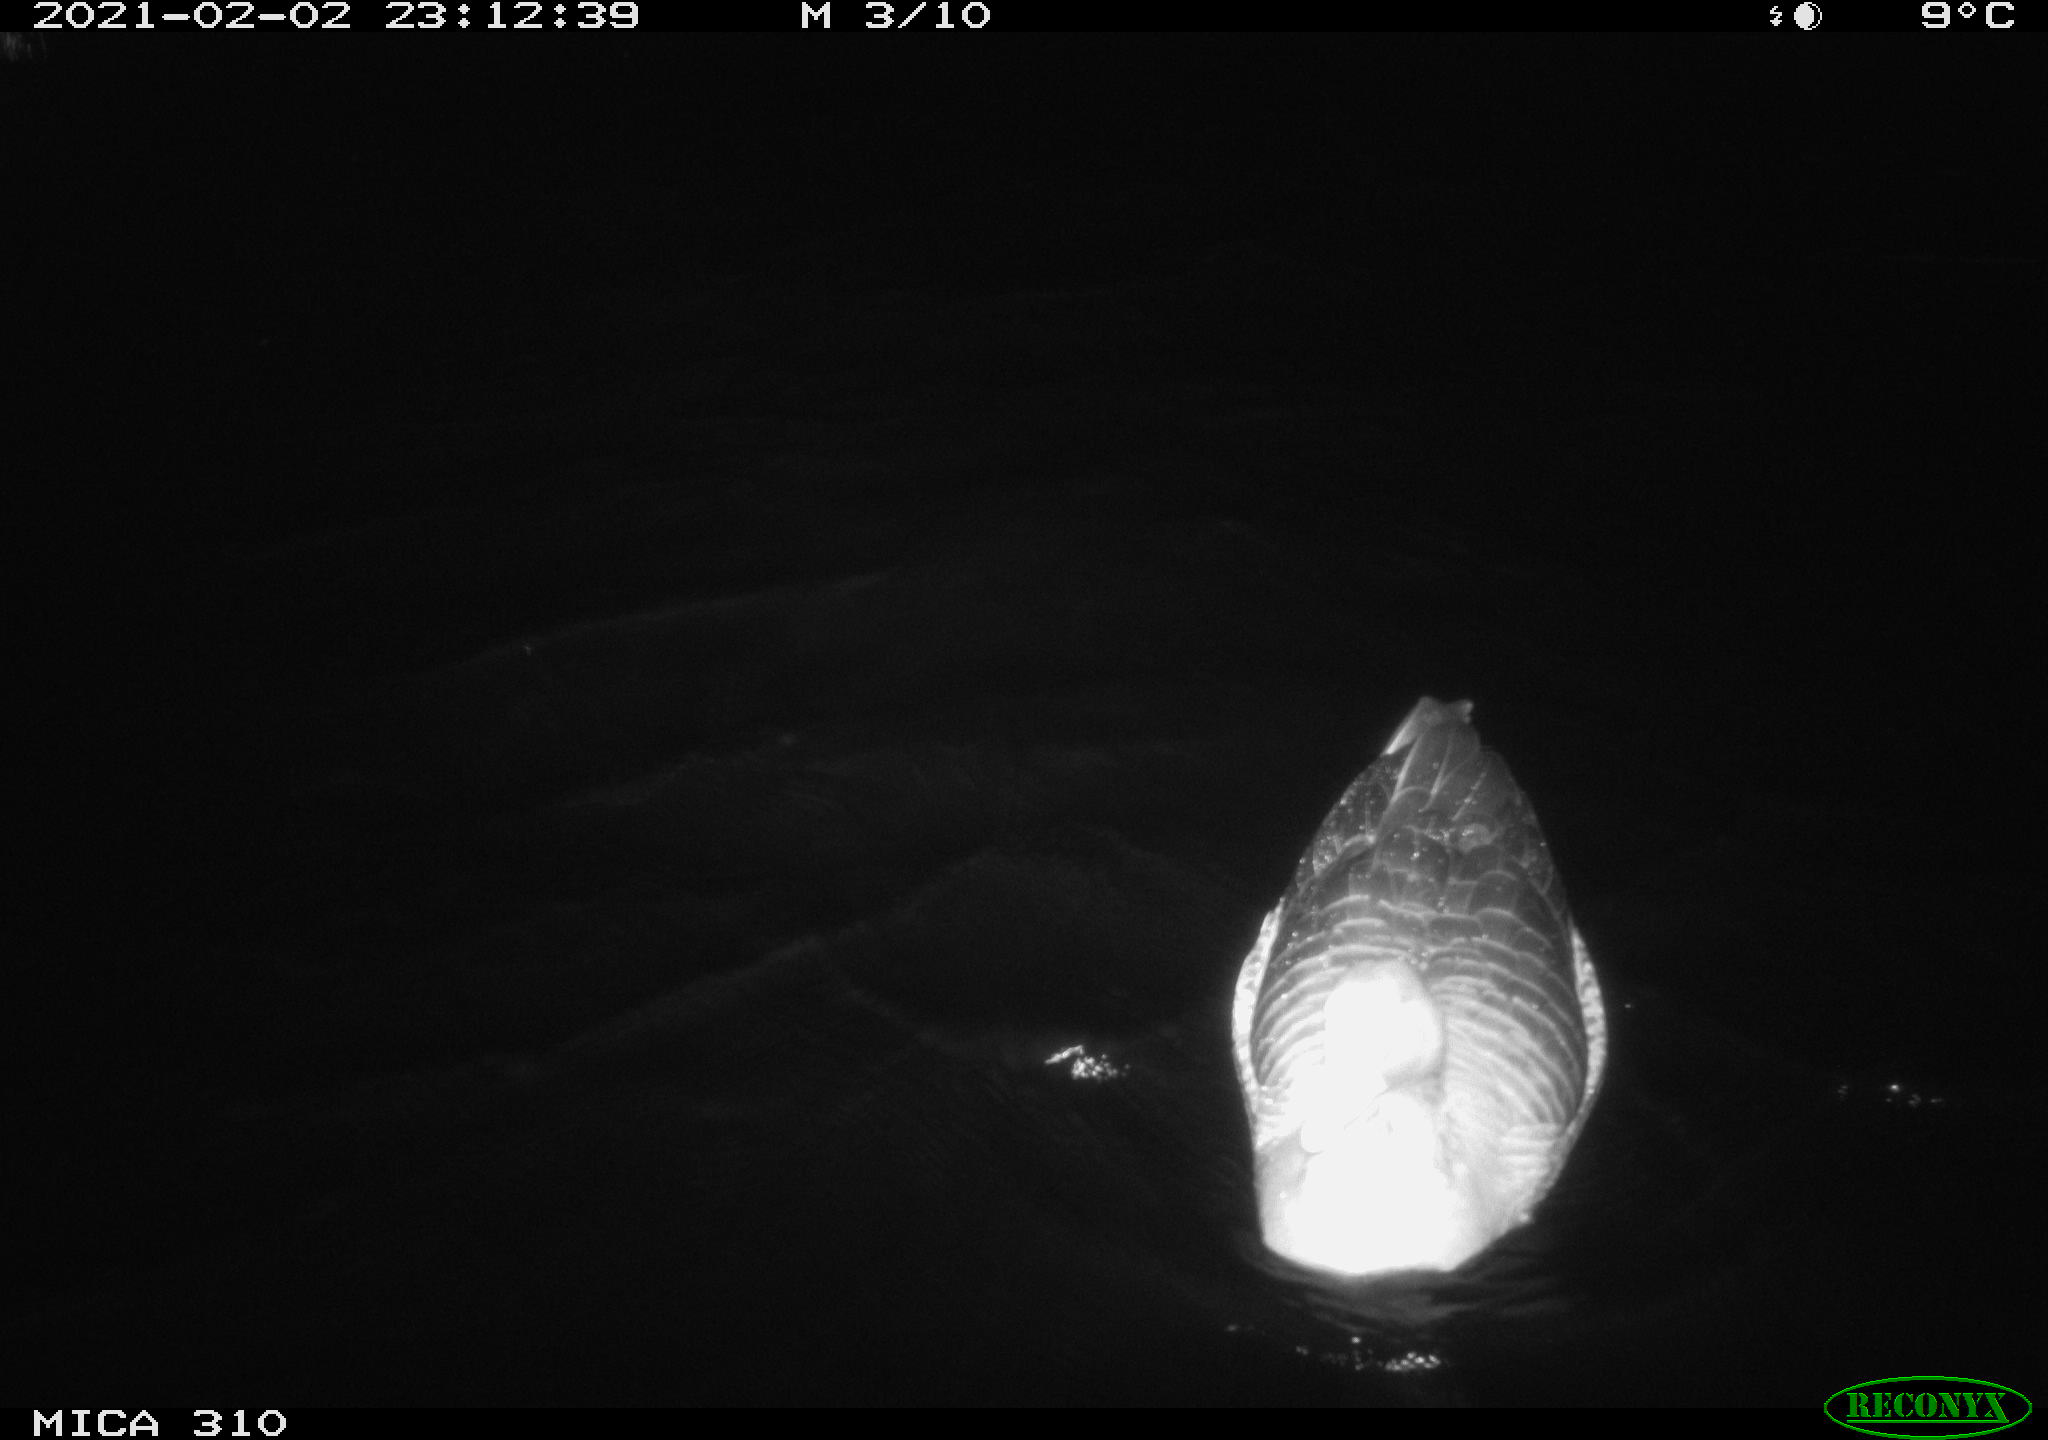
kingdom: Animalia
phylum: Chordata
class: Aves
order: Anseriformes
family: Anatidae
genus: Anser
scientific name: Anser anser
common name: Greylag goose
